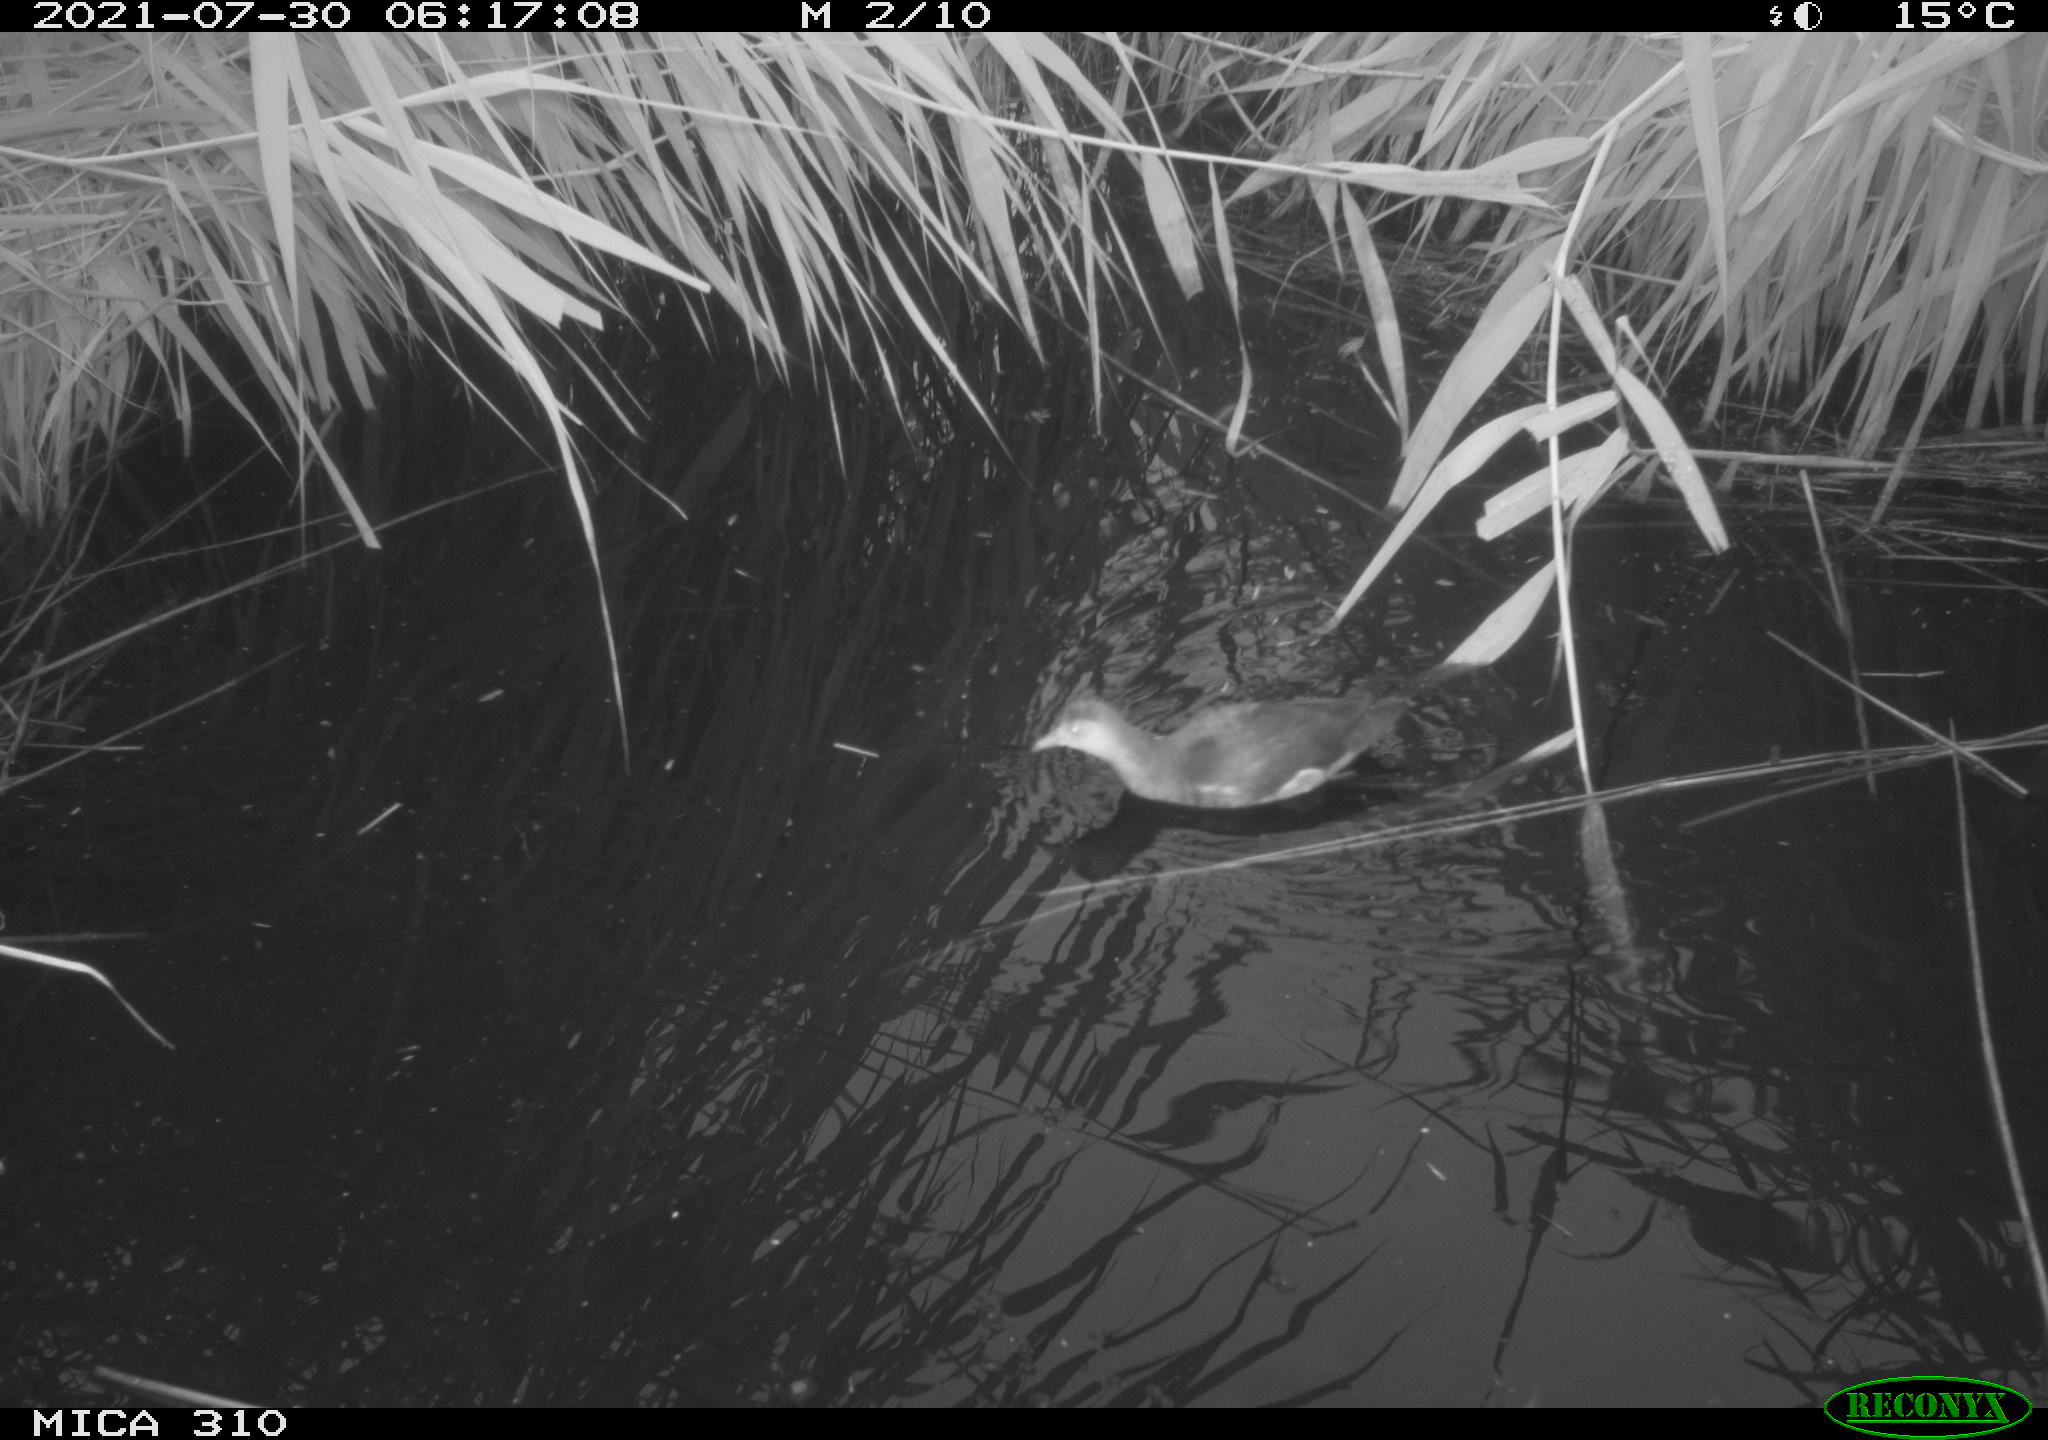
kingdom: Animalia
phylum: Chordata
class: Aves
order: Gruiformes
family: Rallidae
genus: Gallinula
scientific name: Gallinula chloropus
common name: Common moorhen
